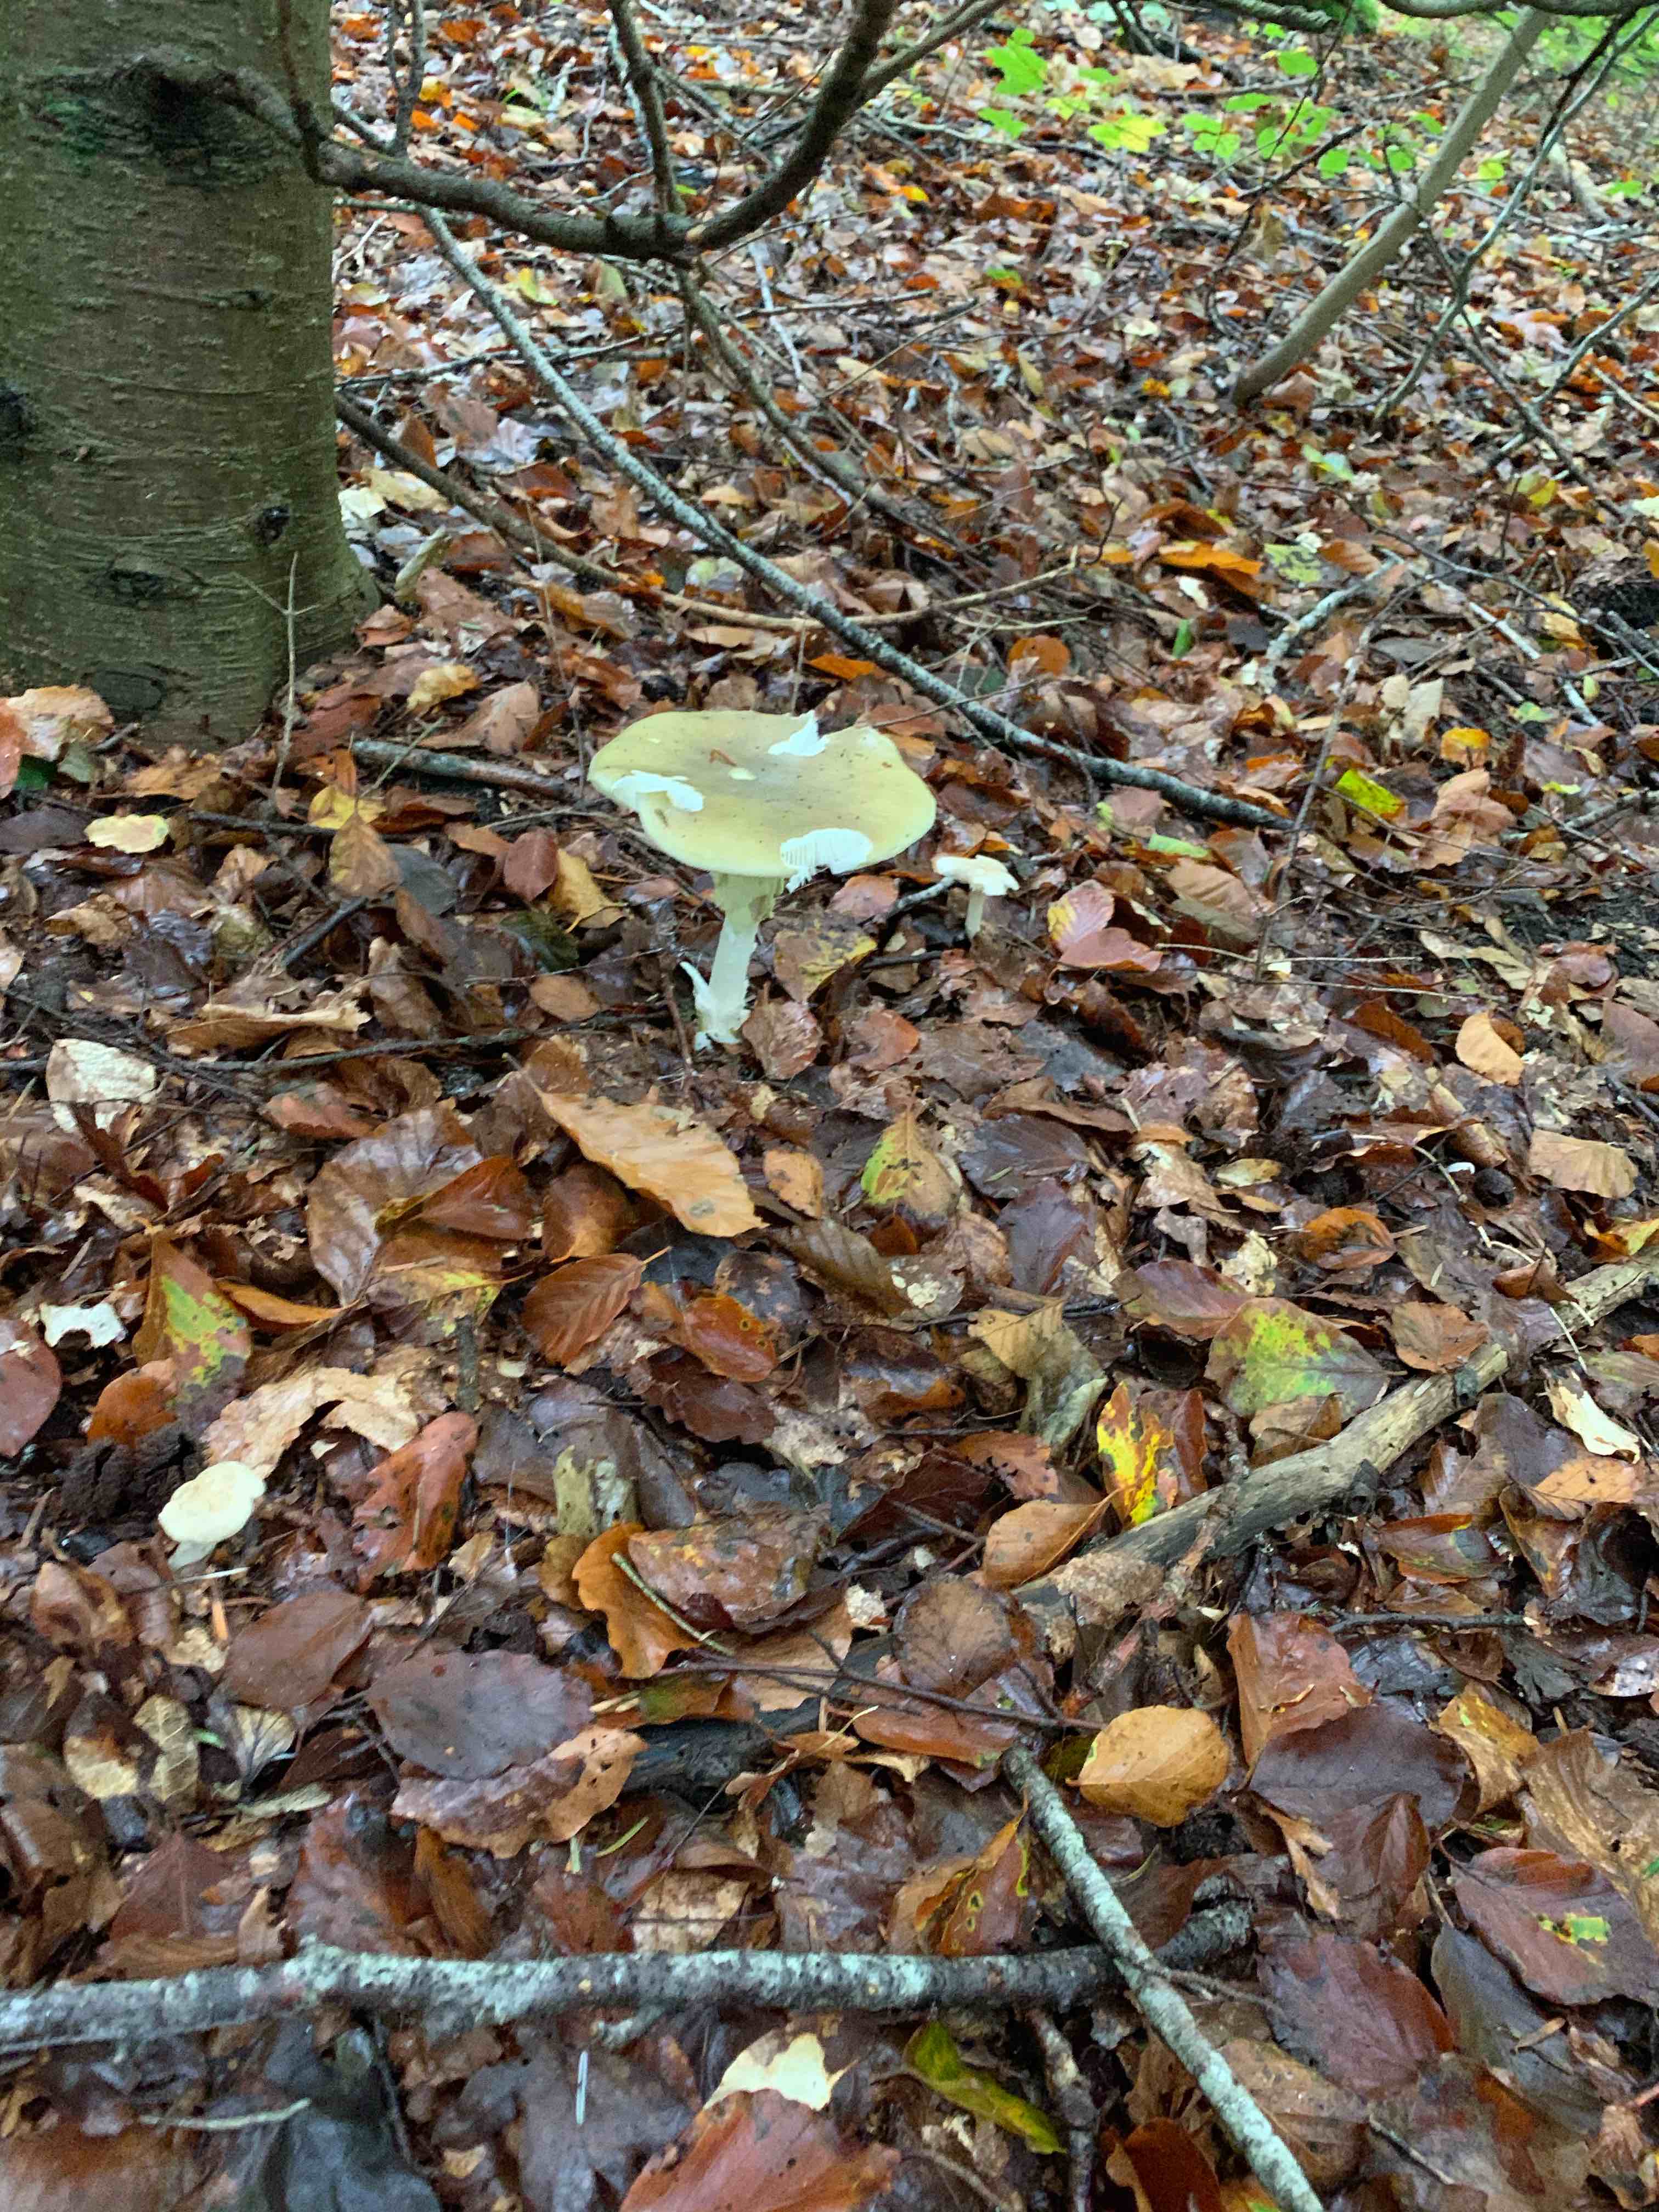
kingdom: Fungi
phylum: Basidiomycota
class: Agaricomycetes
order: Agaricales
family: Amanitaceae
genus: Amanita
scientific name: Amanita phalloides
